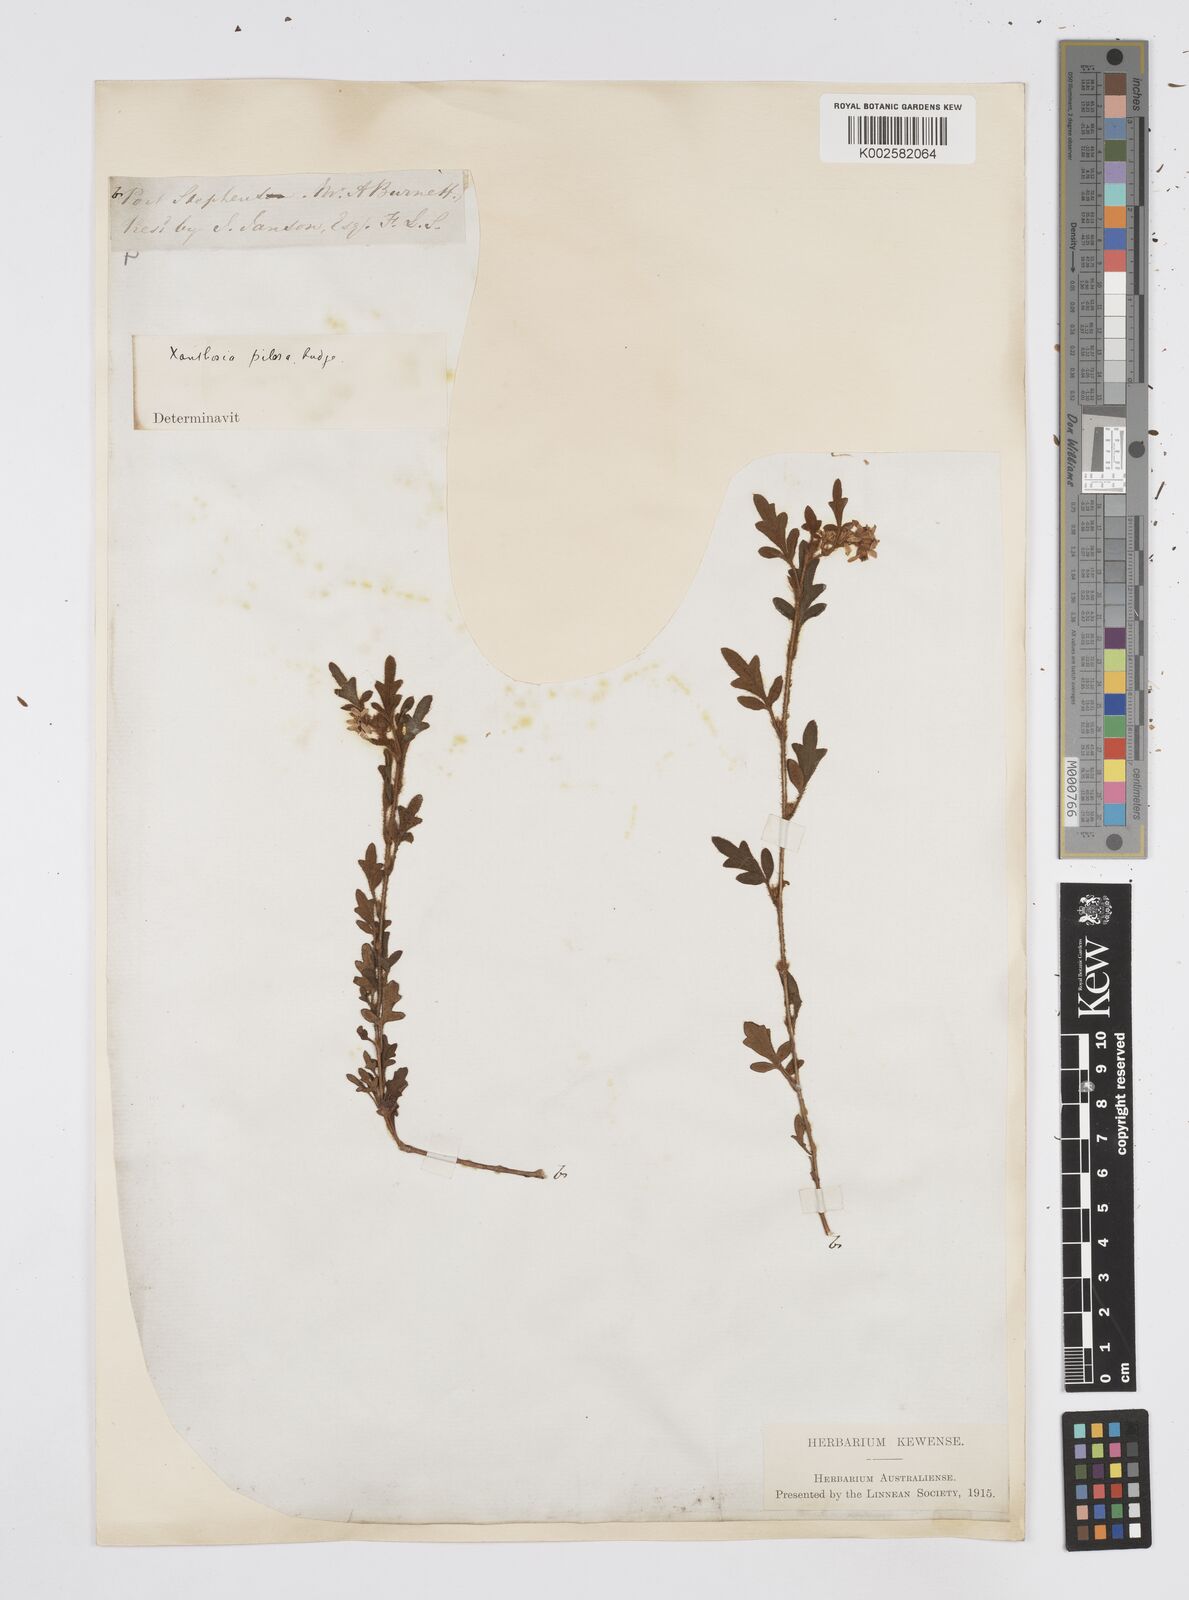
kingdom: Plantae
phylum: Tracheophyta
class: Magnoliopsida
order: Apiales
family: Apiaceae
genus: Xanthosia
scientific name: Xanthosia pilosa
